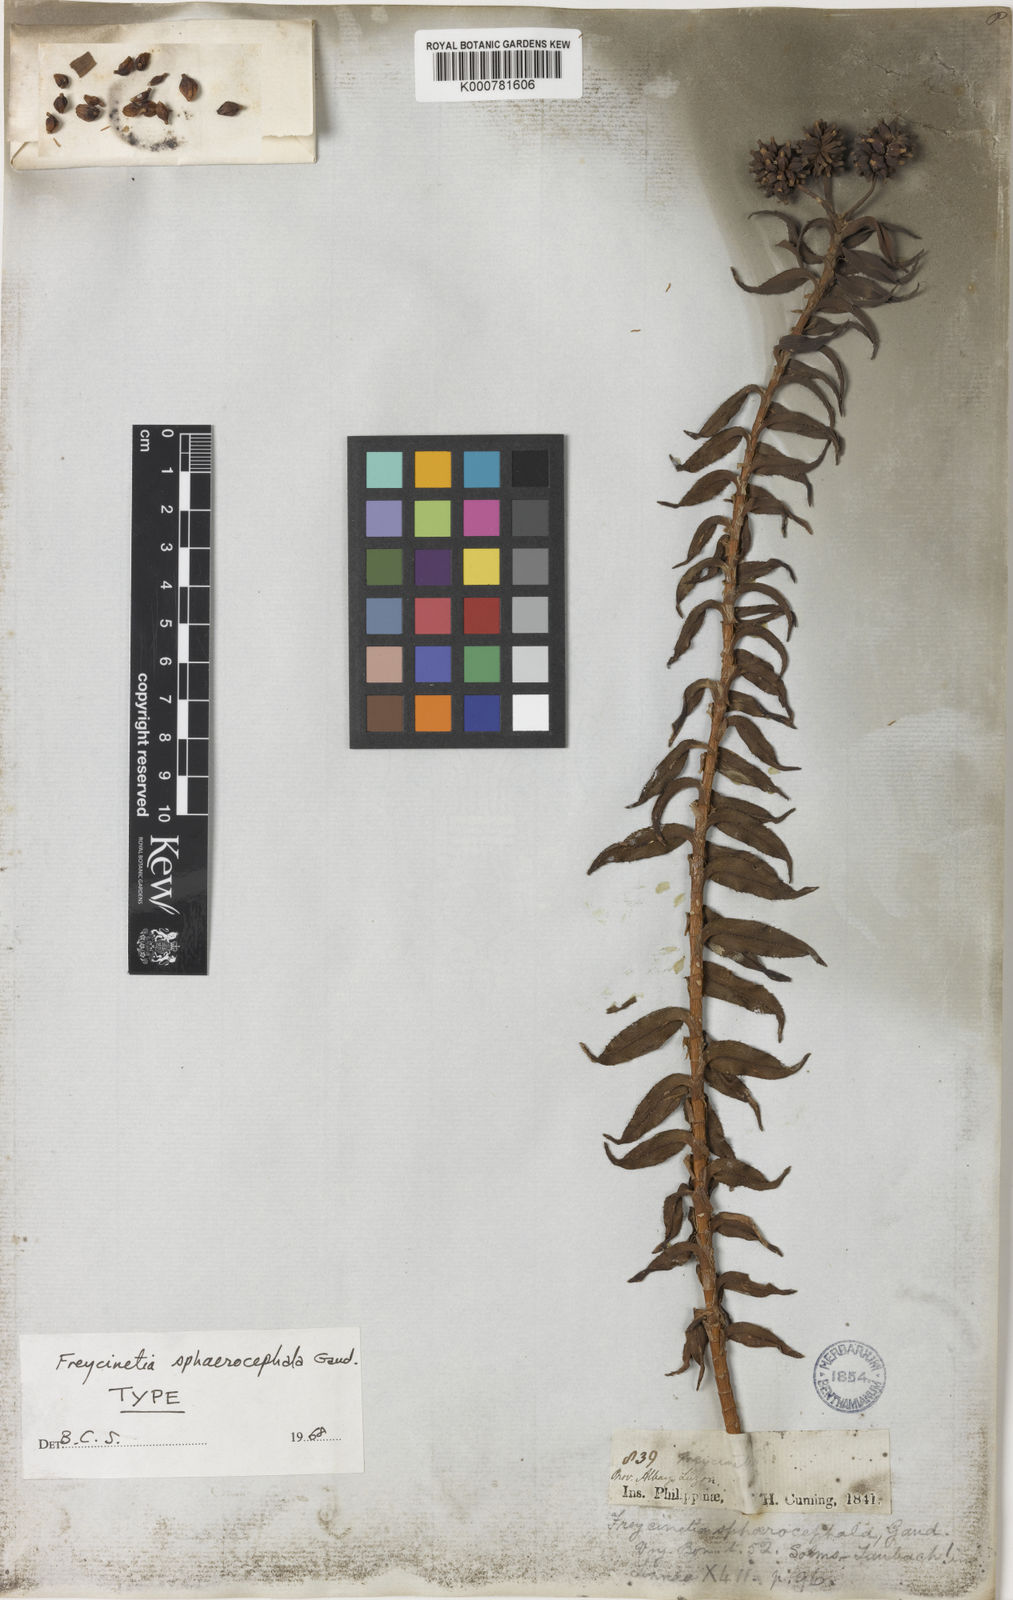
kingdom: Plantae
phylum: Tracheophyta
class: Liliopsida
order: Pandanales
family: Pandanaceae
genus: Freycinetia
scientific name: Freycinetia sphaerocephala
